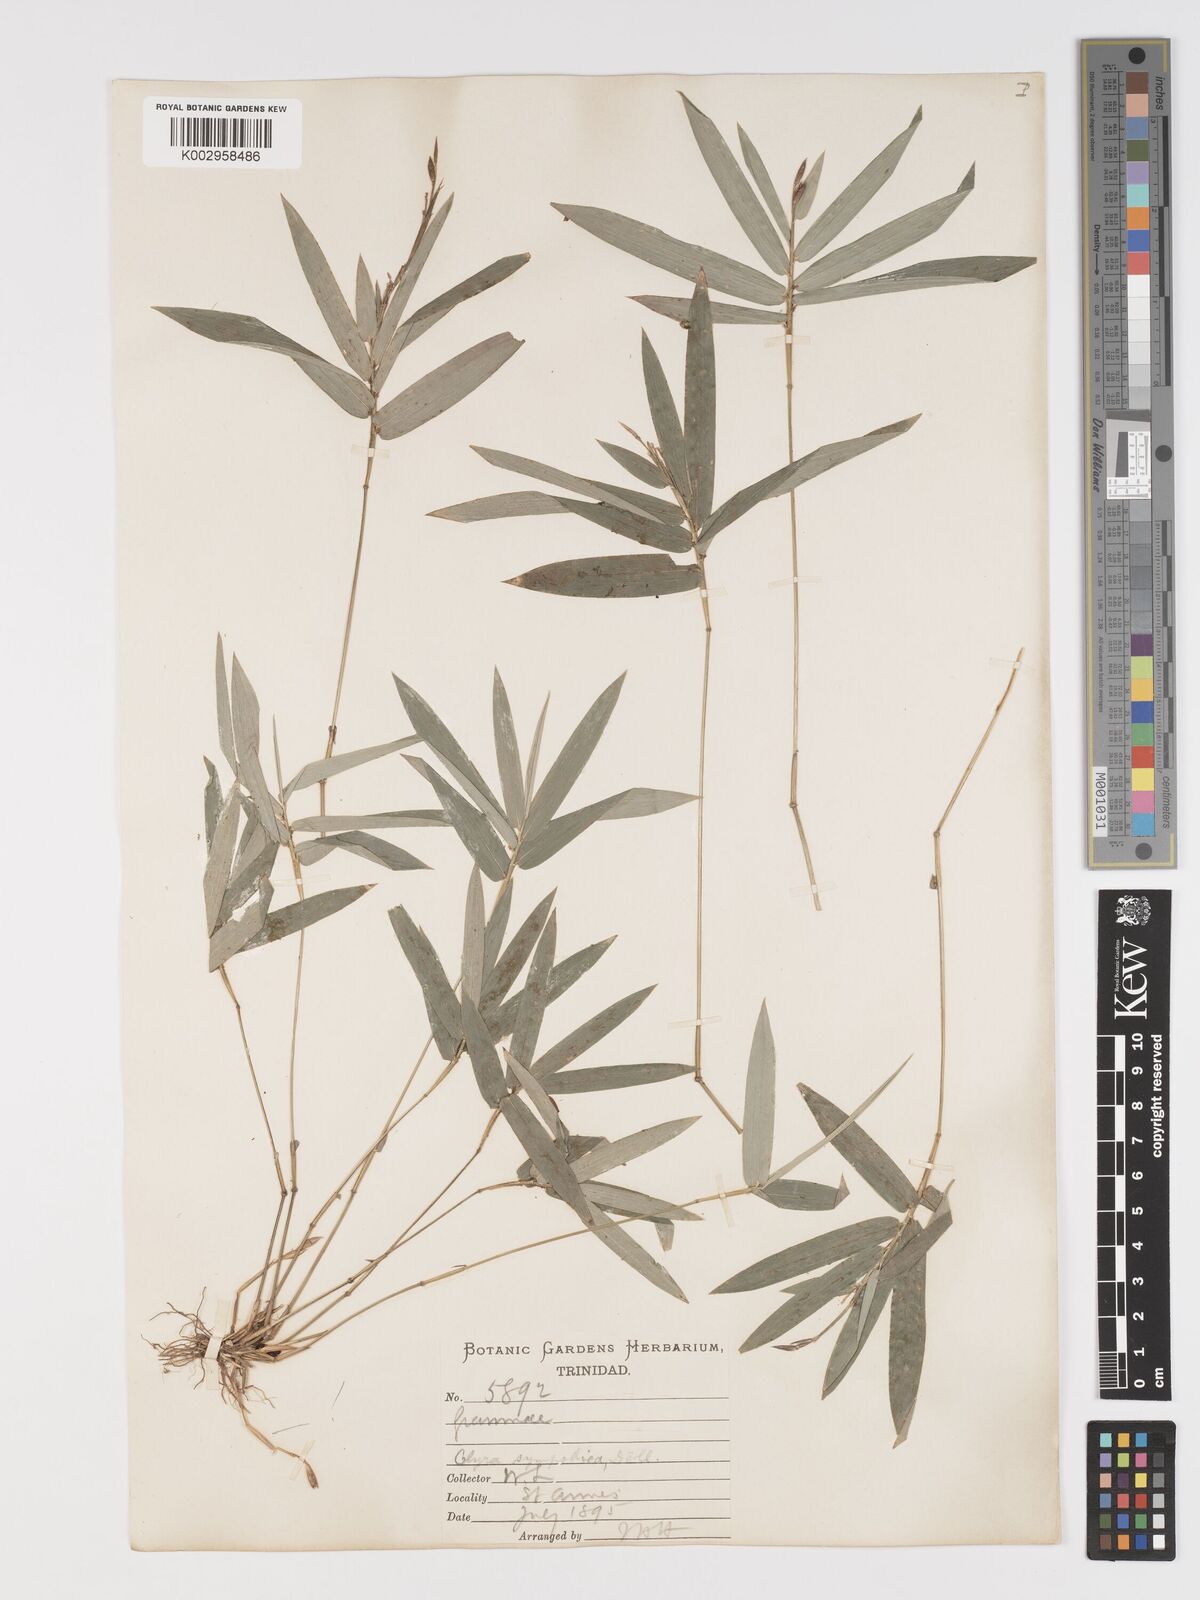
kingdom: Plantae
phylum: Tracheophyta
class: Liliopsida
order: Poales
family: Poaceae
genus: Piresia
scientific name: Piresia sympodica
